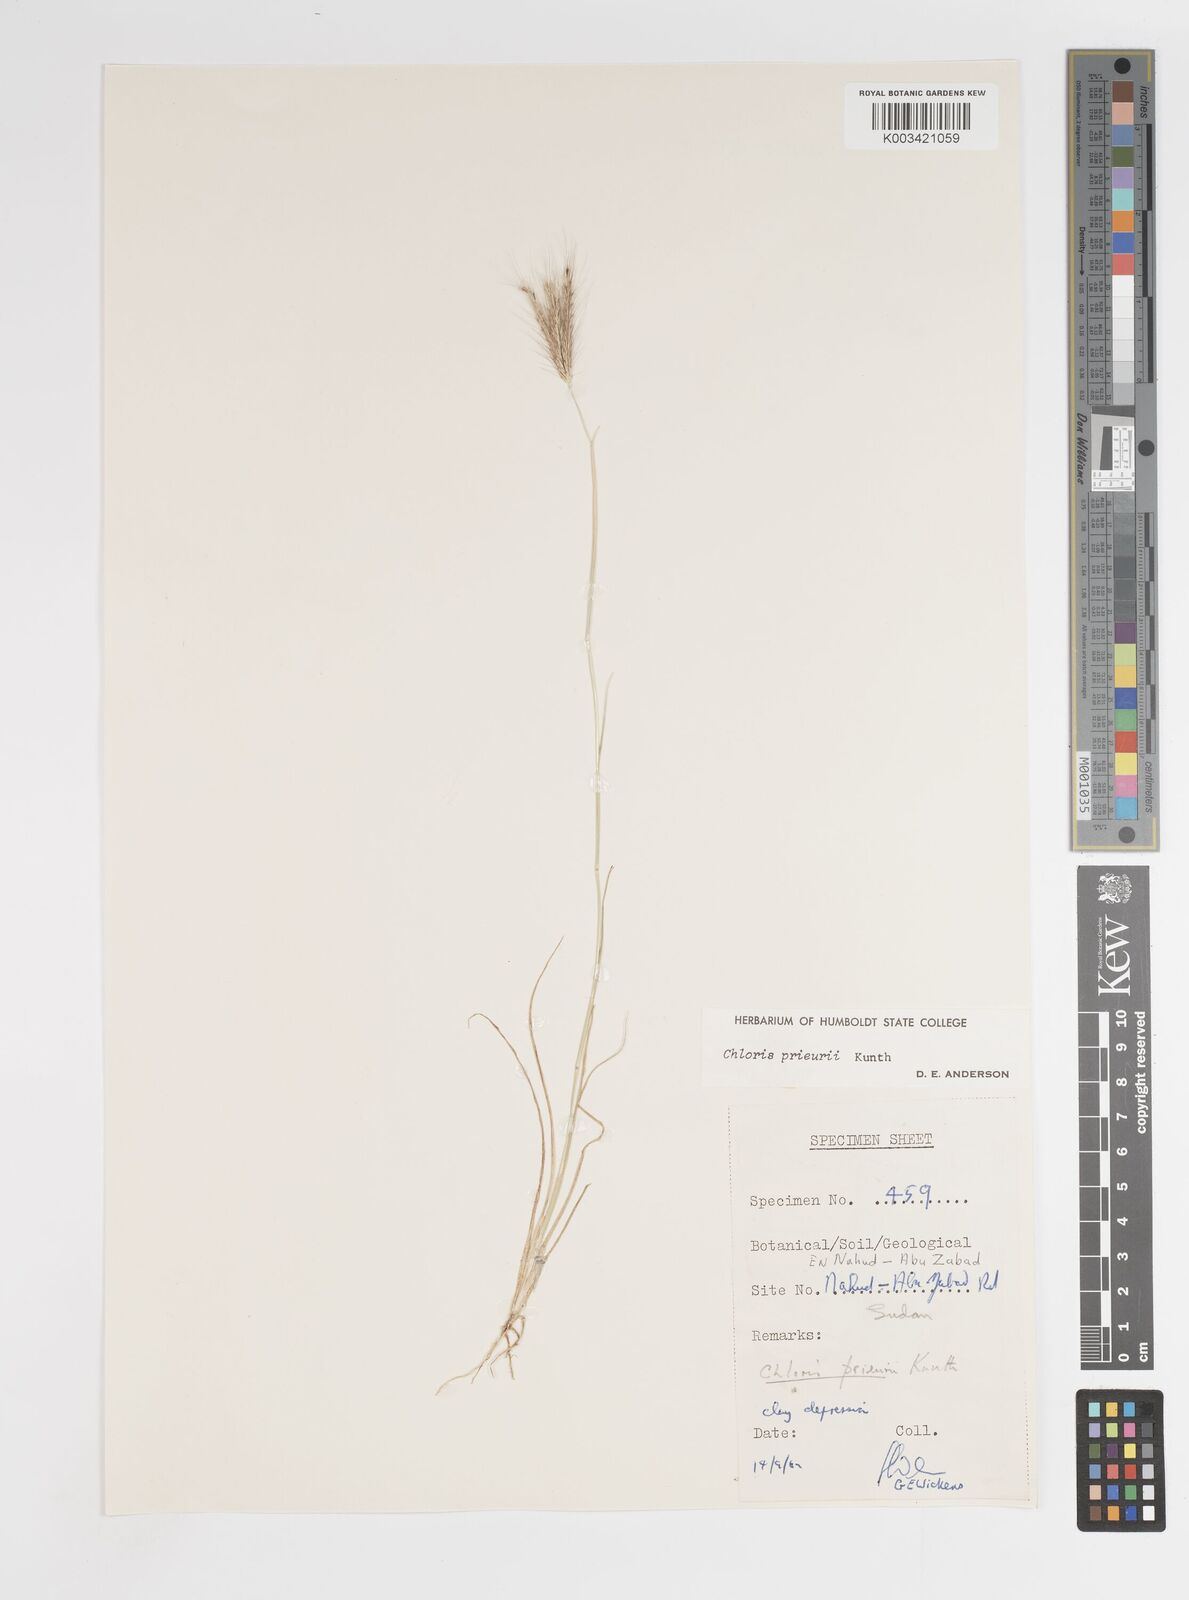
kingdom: Plantae
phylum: Tracheophyta
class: Liliopsida
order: Poales
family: Poaceae
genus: Enteropogon
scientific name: Enteropogon prieurii
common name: Prieur's umbrellagrass
